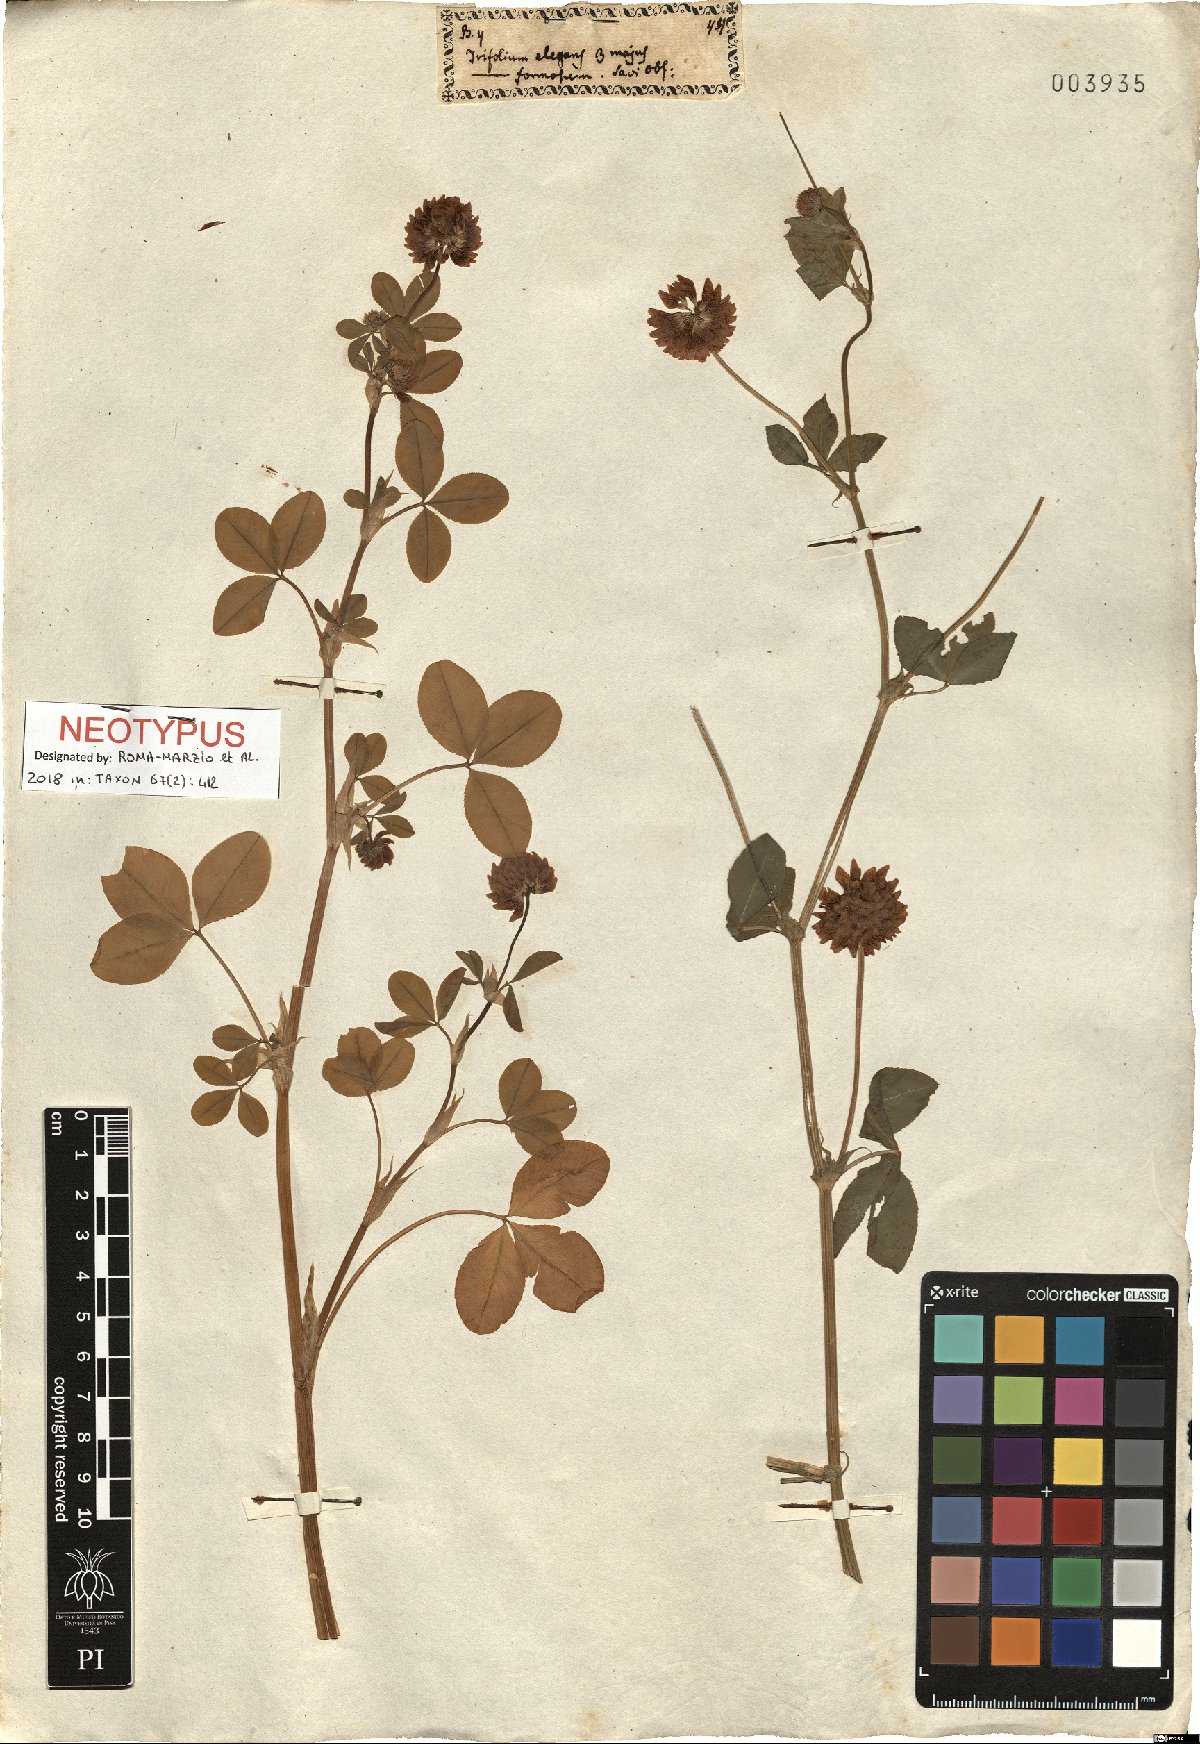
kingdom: Plantae
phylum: Tracheophyta
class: Magnoliopsida
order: Fabales
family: Fabaceae
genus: Trifolium
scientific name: Trifolium hybridum
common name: Alsike clover
